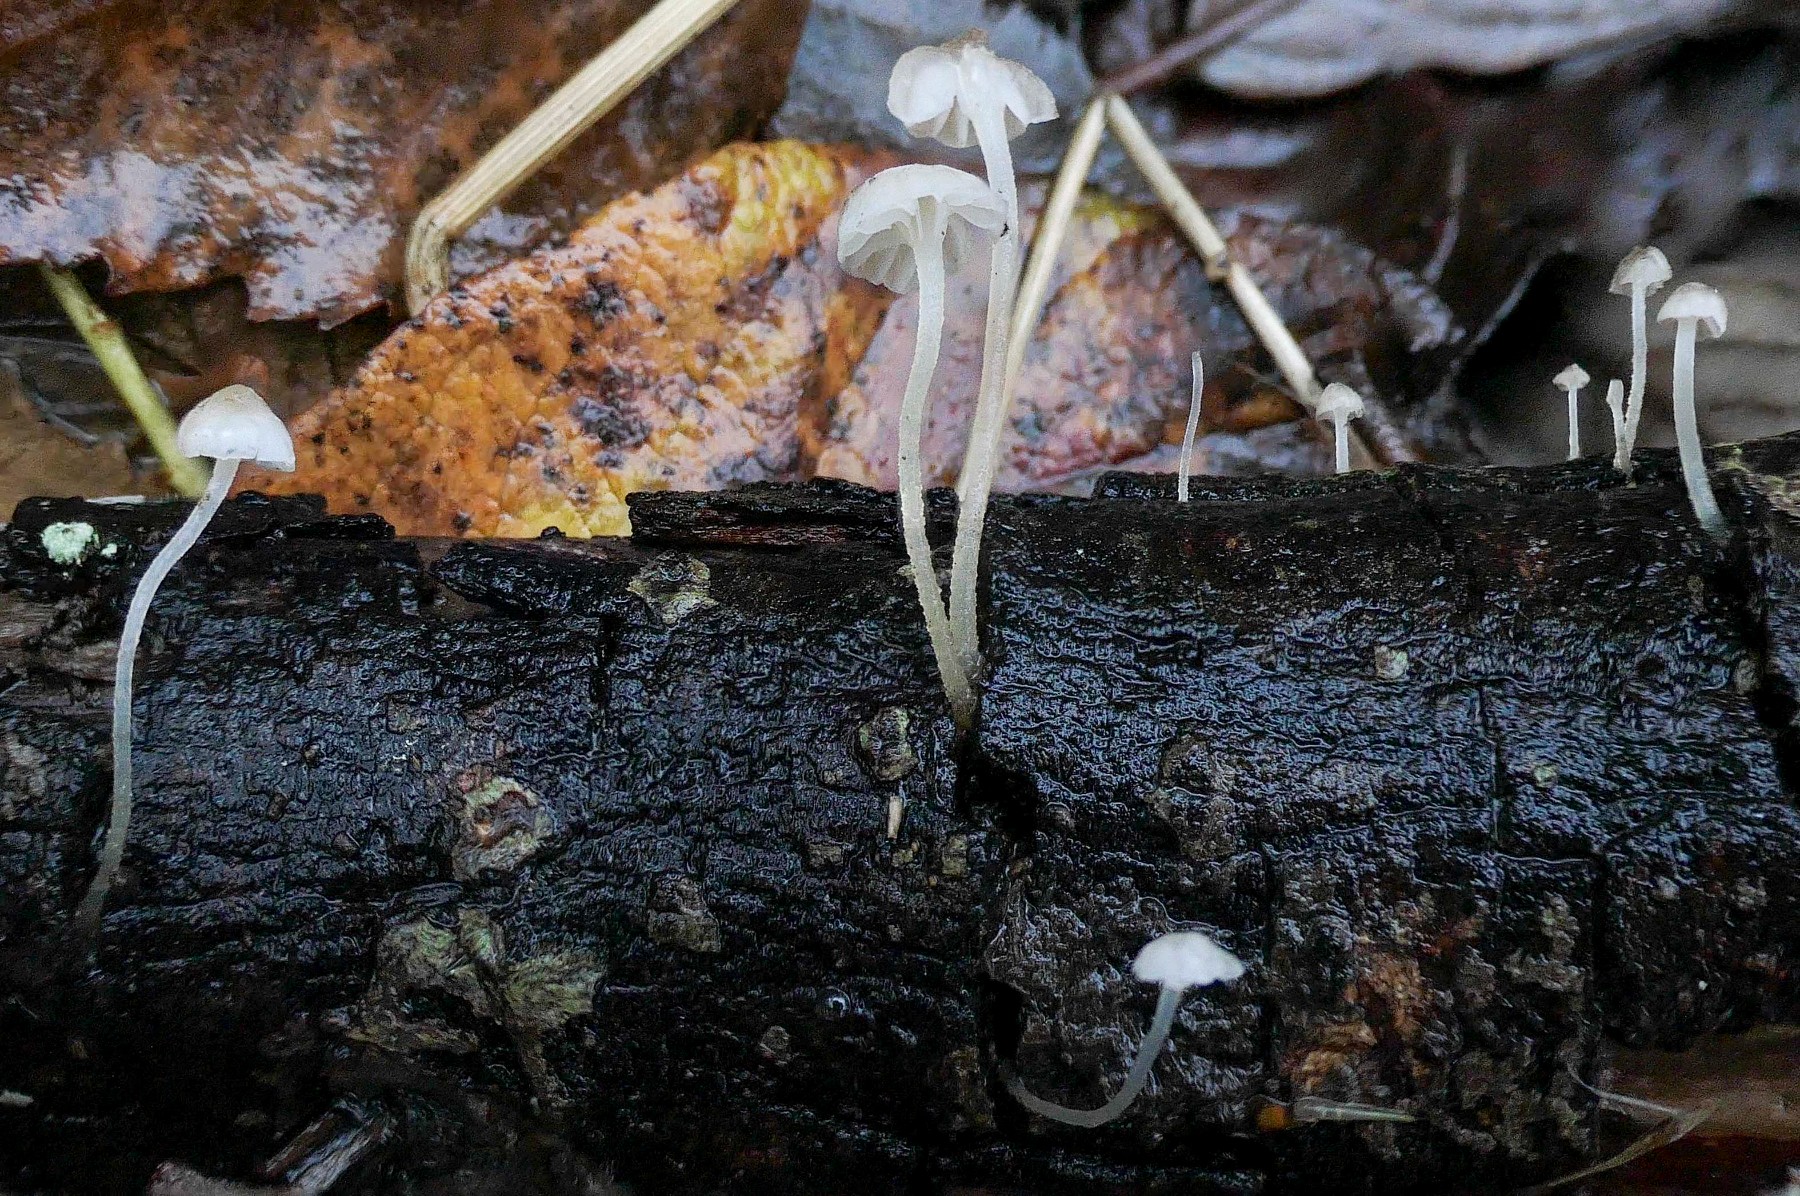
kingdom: Fungi
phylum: Basidiomycota
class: Agaricomycetes
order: Agaricales
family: Porotheleaceae
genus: Phloeomana
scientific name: Phloeomana speirea
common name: kvist-huesvamp
